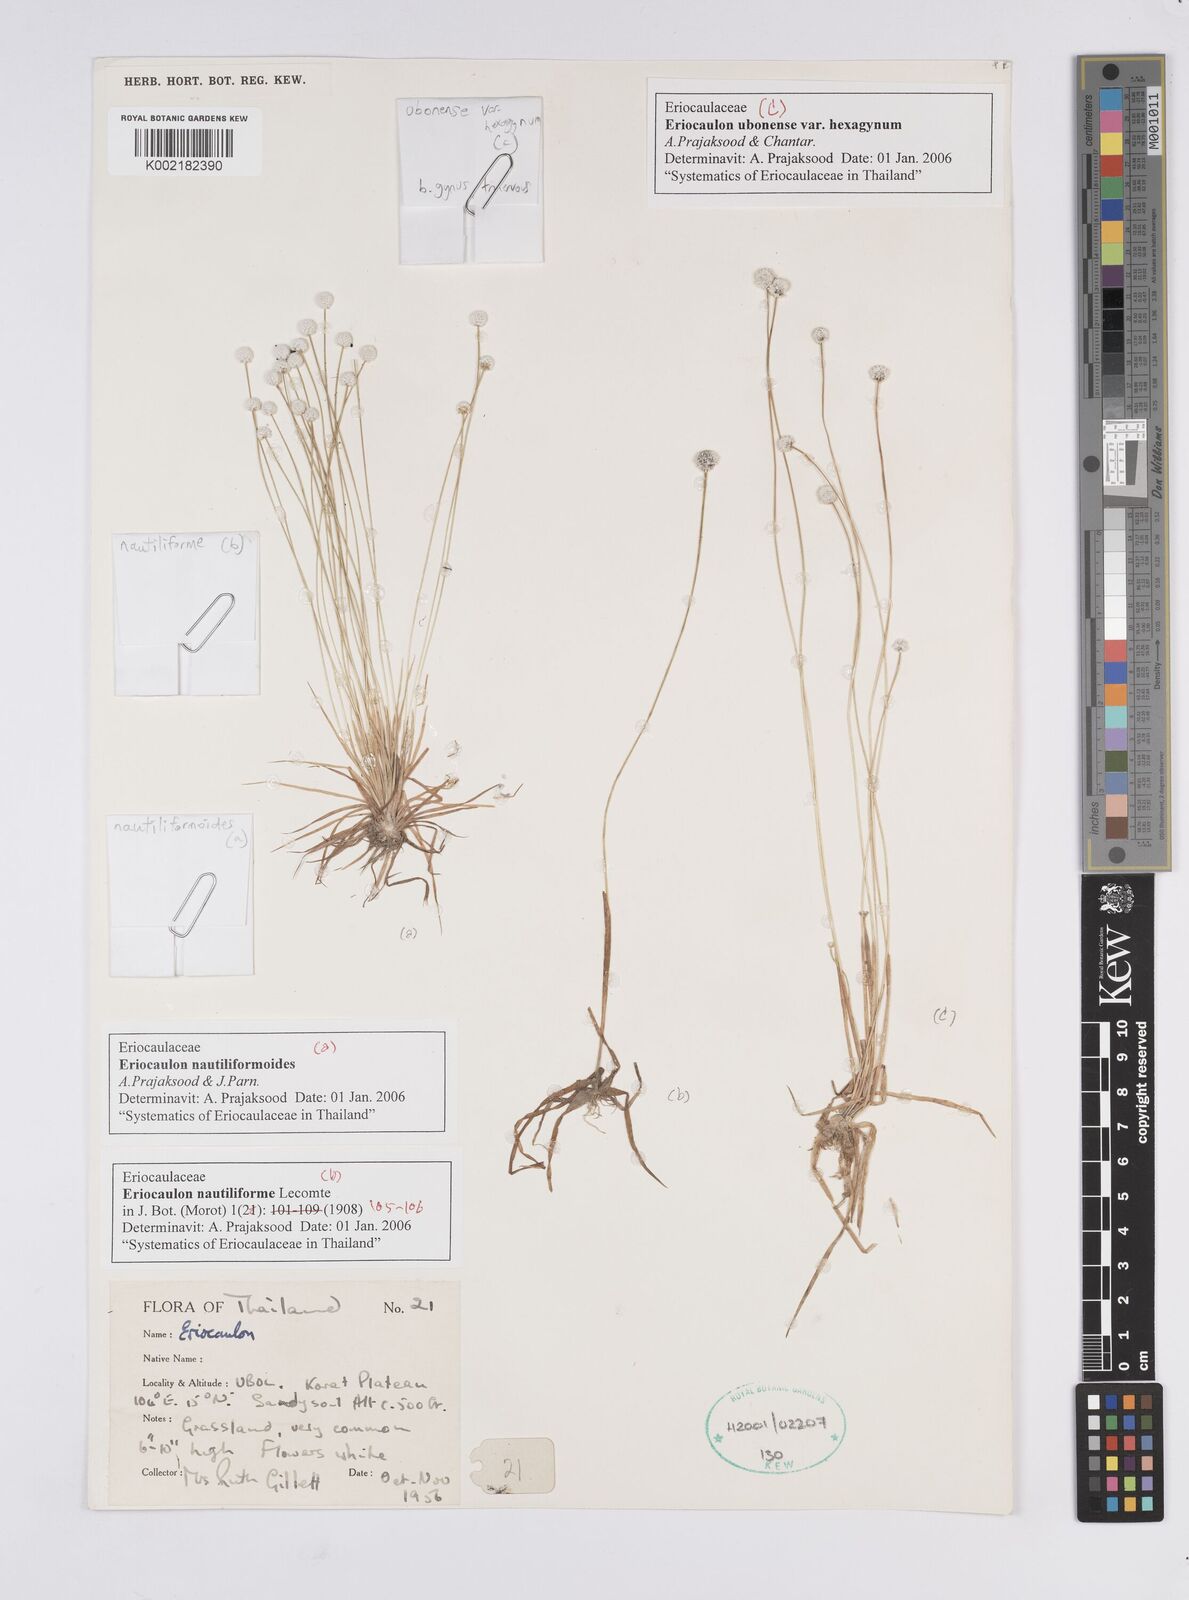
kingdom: Plantae
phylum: Tracheophyta
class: Liliopsida
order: Poales
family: Eriocaulaceae
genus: Eriocaulon
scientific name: Eriocaulon nautiliforme
